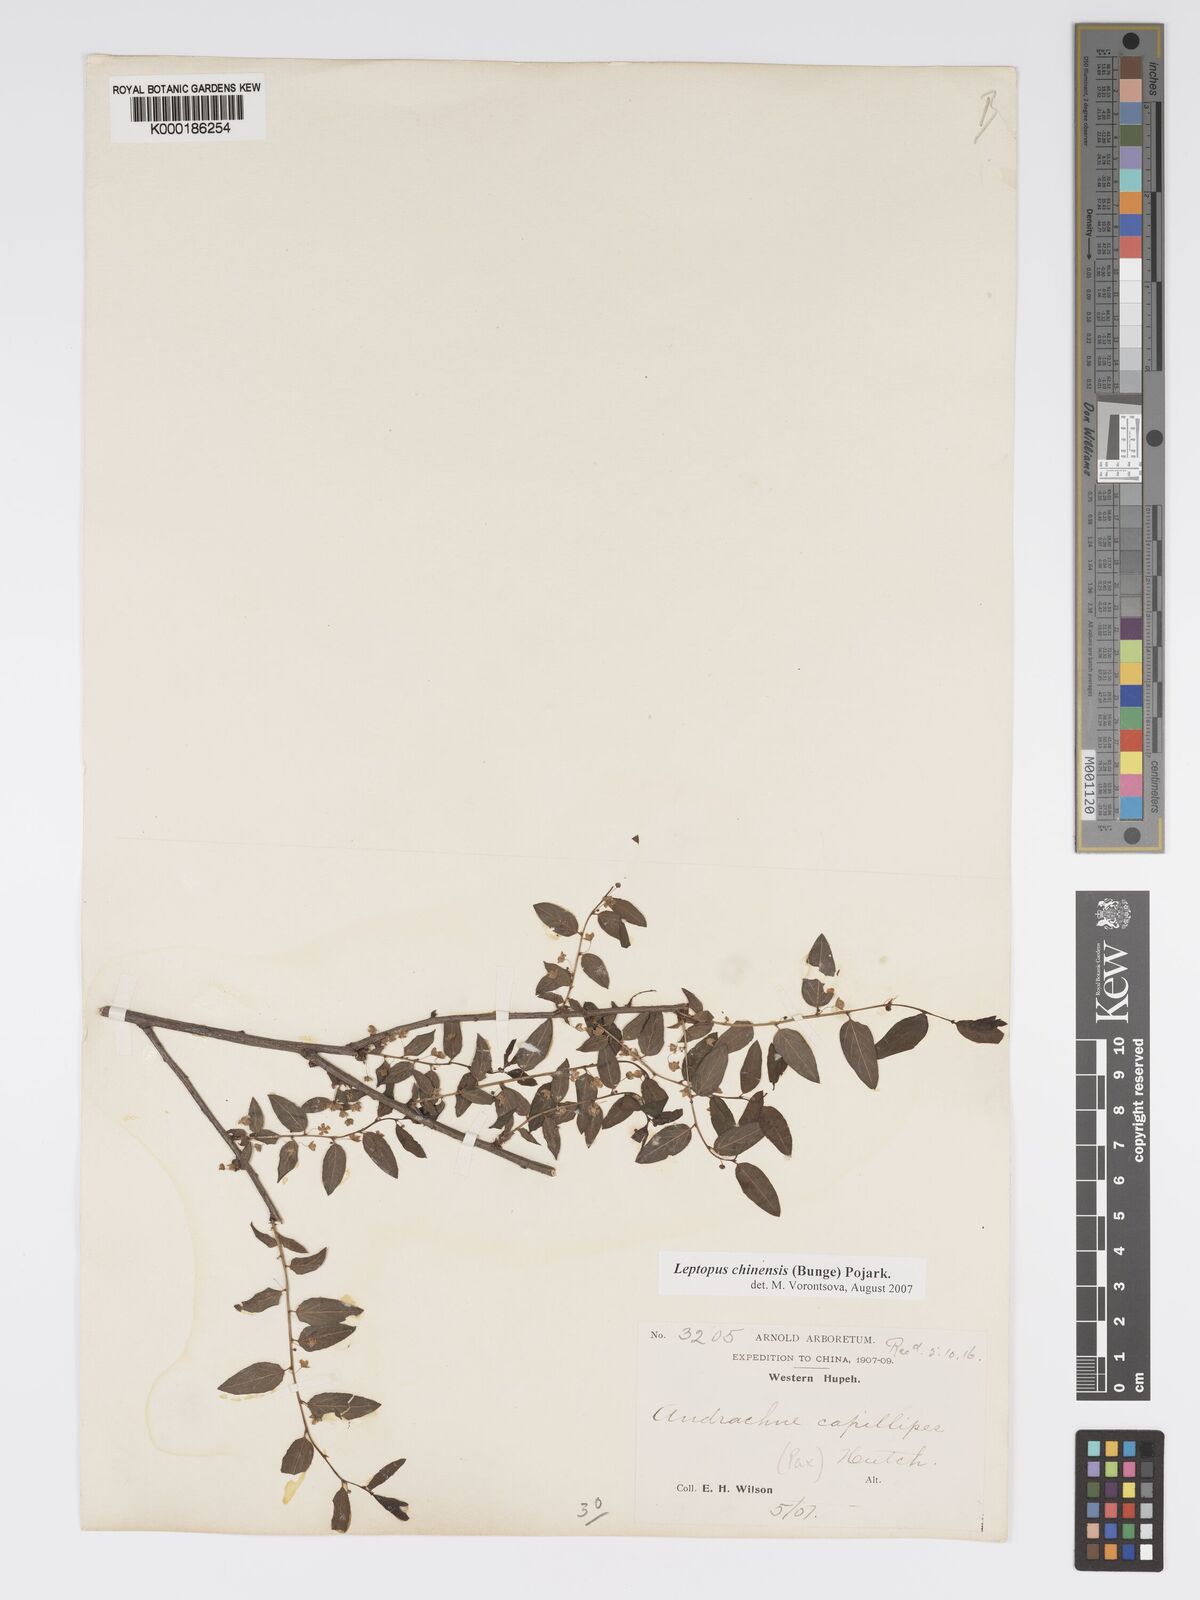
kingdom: Plantae
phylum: Tracheophyta
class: Magnoliopsida
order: Malpighiales
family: Phyllanthaceae
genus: Leptopus
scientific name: Leptopus chinensis
